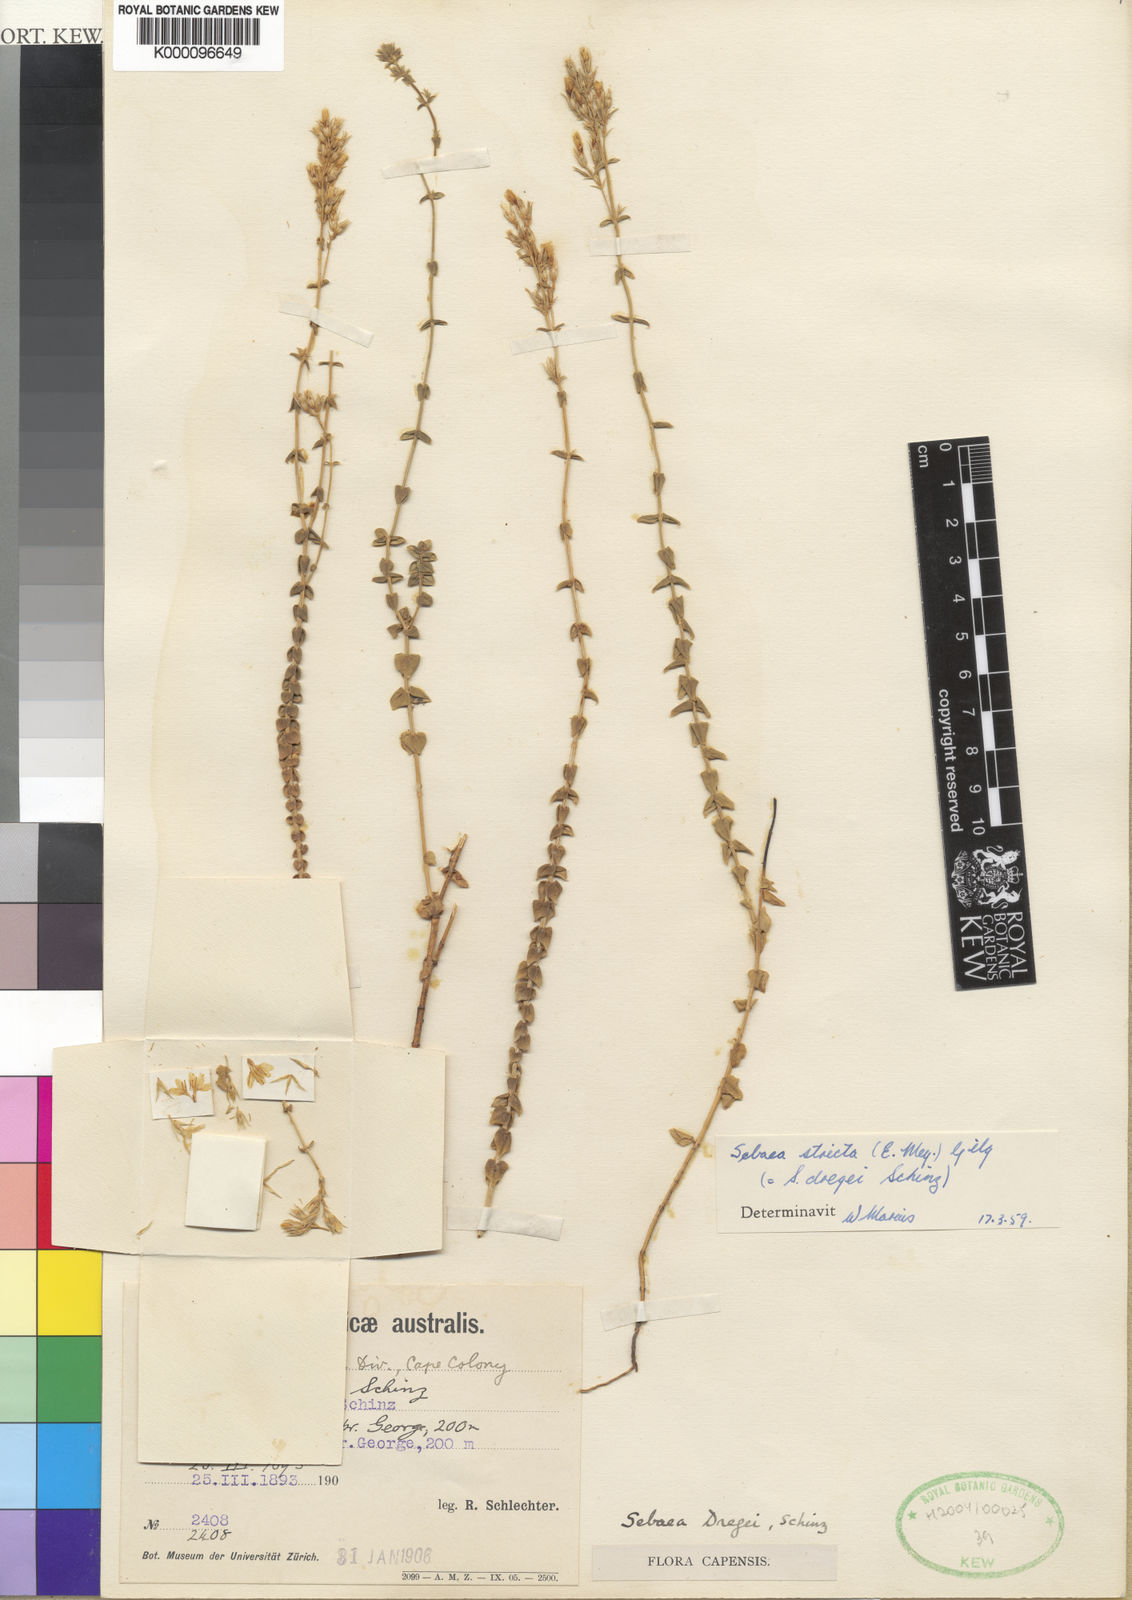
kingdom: Plantae
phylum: Tracheophyta
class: Magnoliopsida
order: Gentianales
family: Gentianaceae
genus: Sebaea
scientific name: Sebaea stricta
